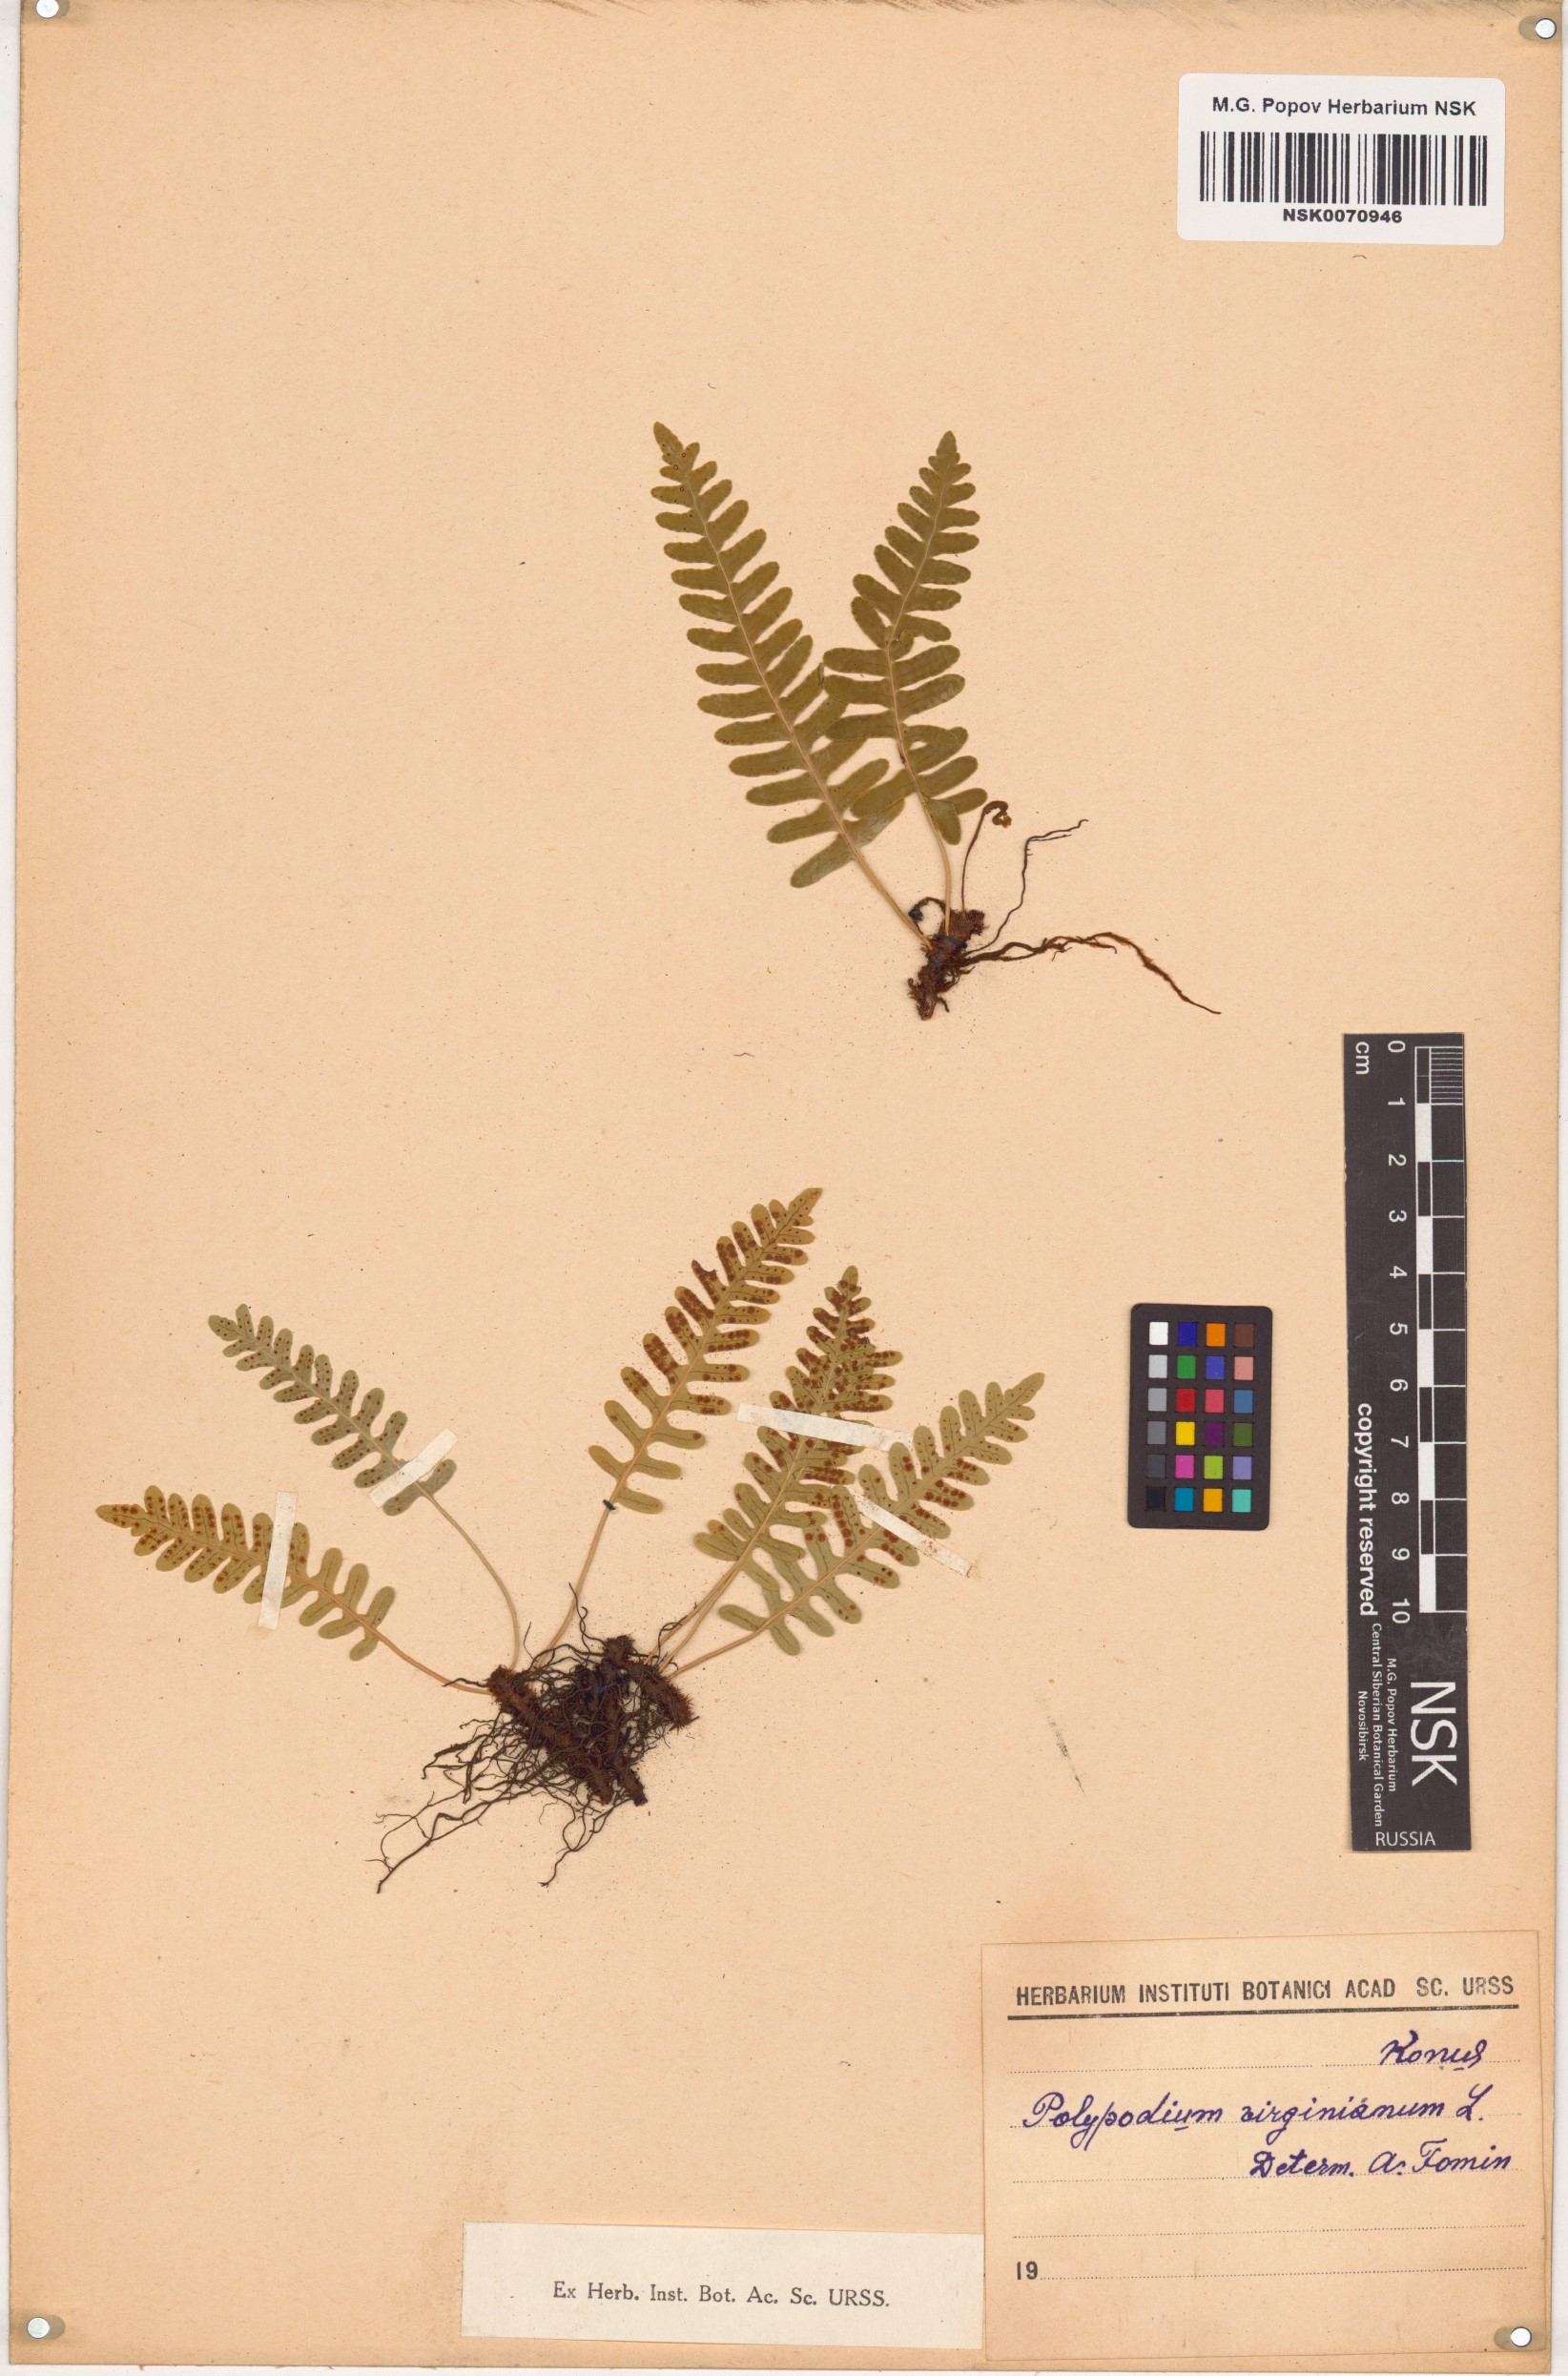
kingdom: Plantae
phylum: Tracheophyta
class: Polypodiopsida
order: Polypodiales
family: Polypodiaceae
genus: Polypodium
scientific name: Polypodium virginianum
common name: American wall fern
